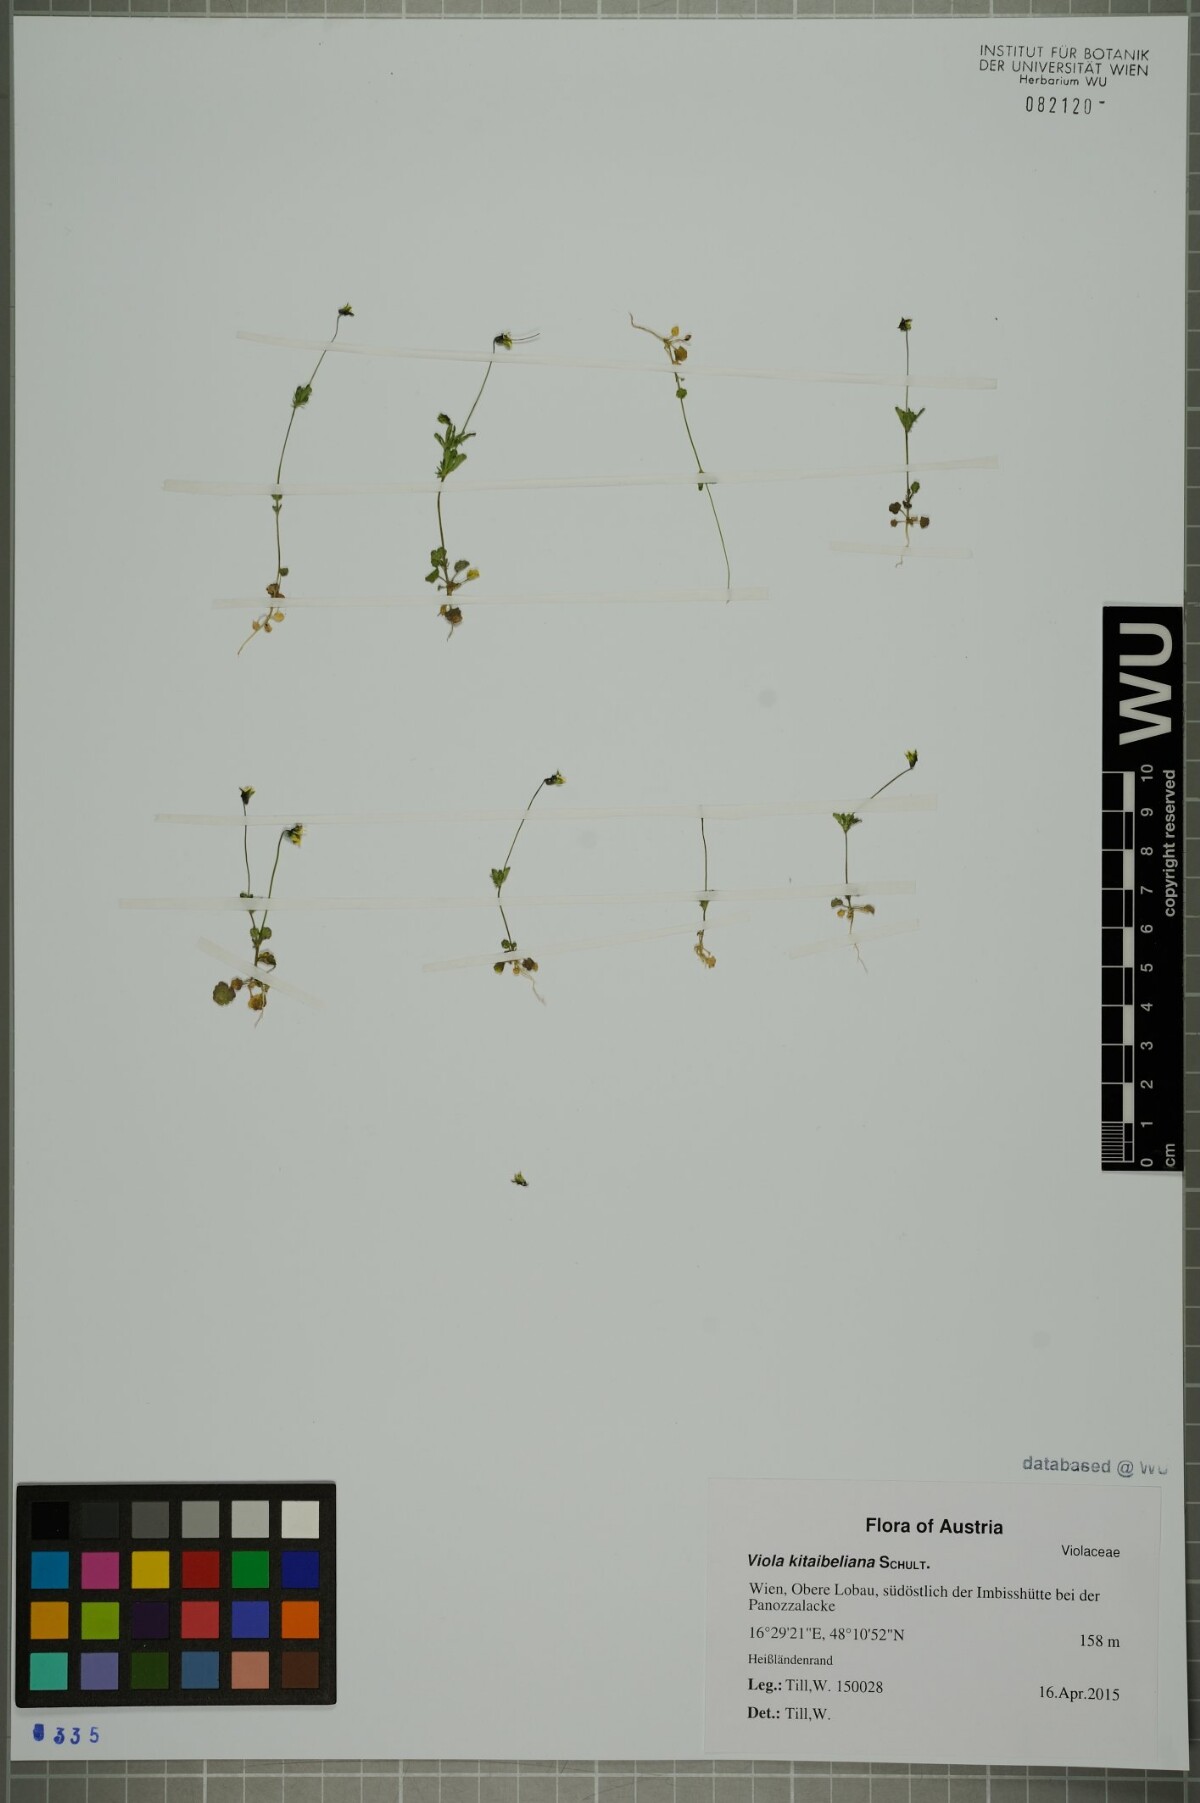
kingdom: Plantae
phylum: Tracheophyta
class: Magnoliopsida
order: Malpighiales
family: Violaceae
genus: Viola
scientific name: Viola kitaibeliana
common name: Dwarf pansy
